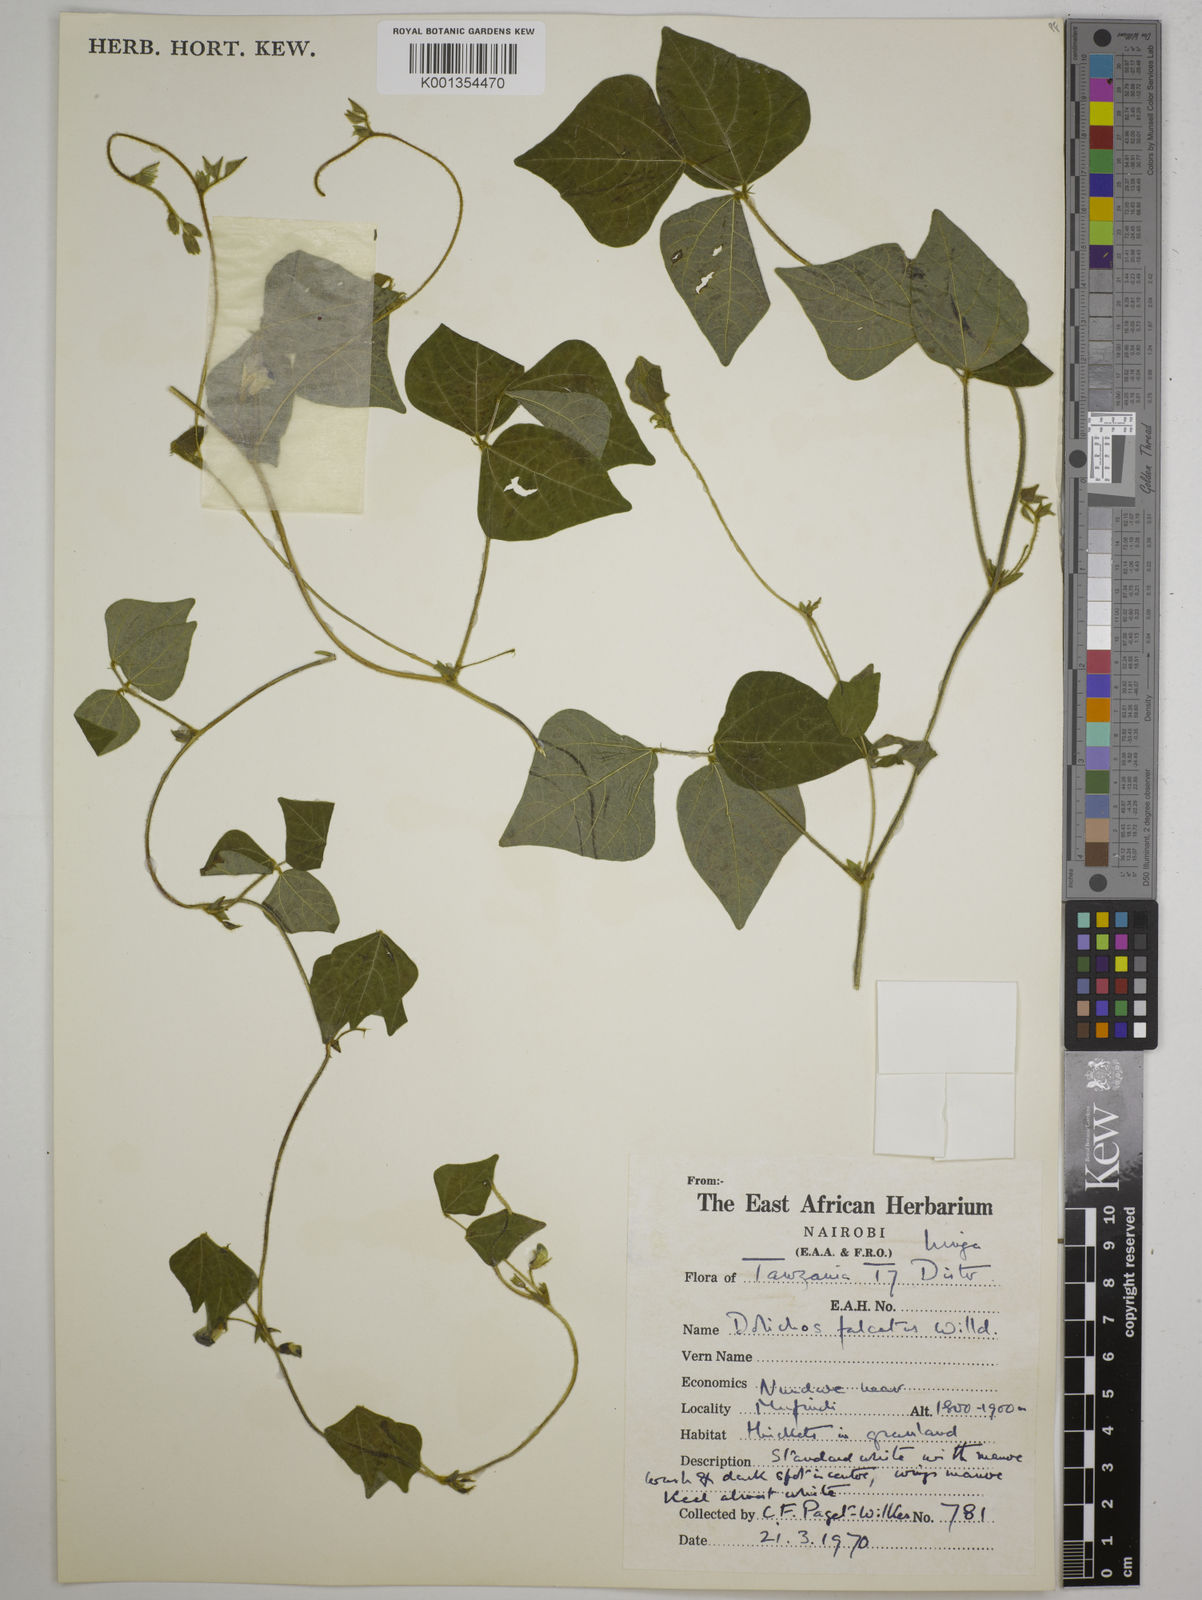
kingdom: Plantae
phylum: Tracheophyta
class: Magnoliopsida
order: Fabales
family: Fabaceae
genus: Dolichos
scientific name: Dolichos
